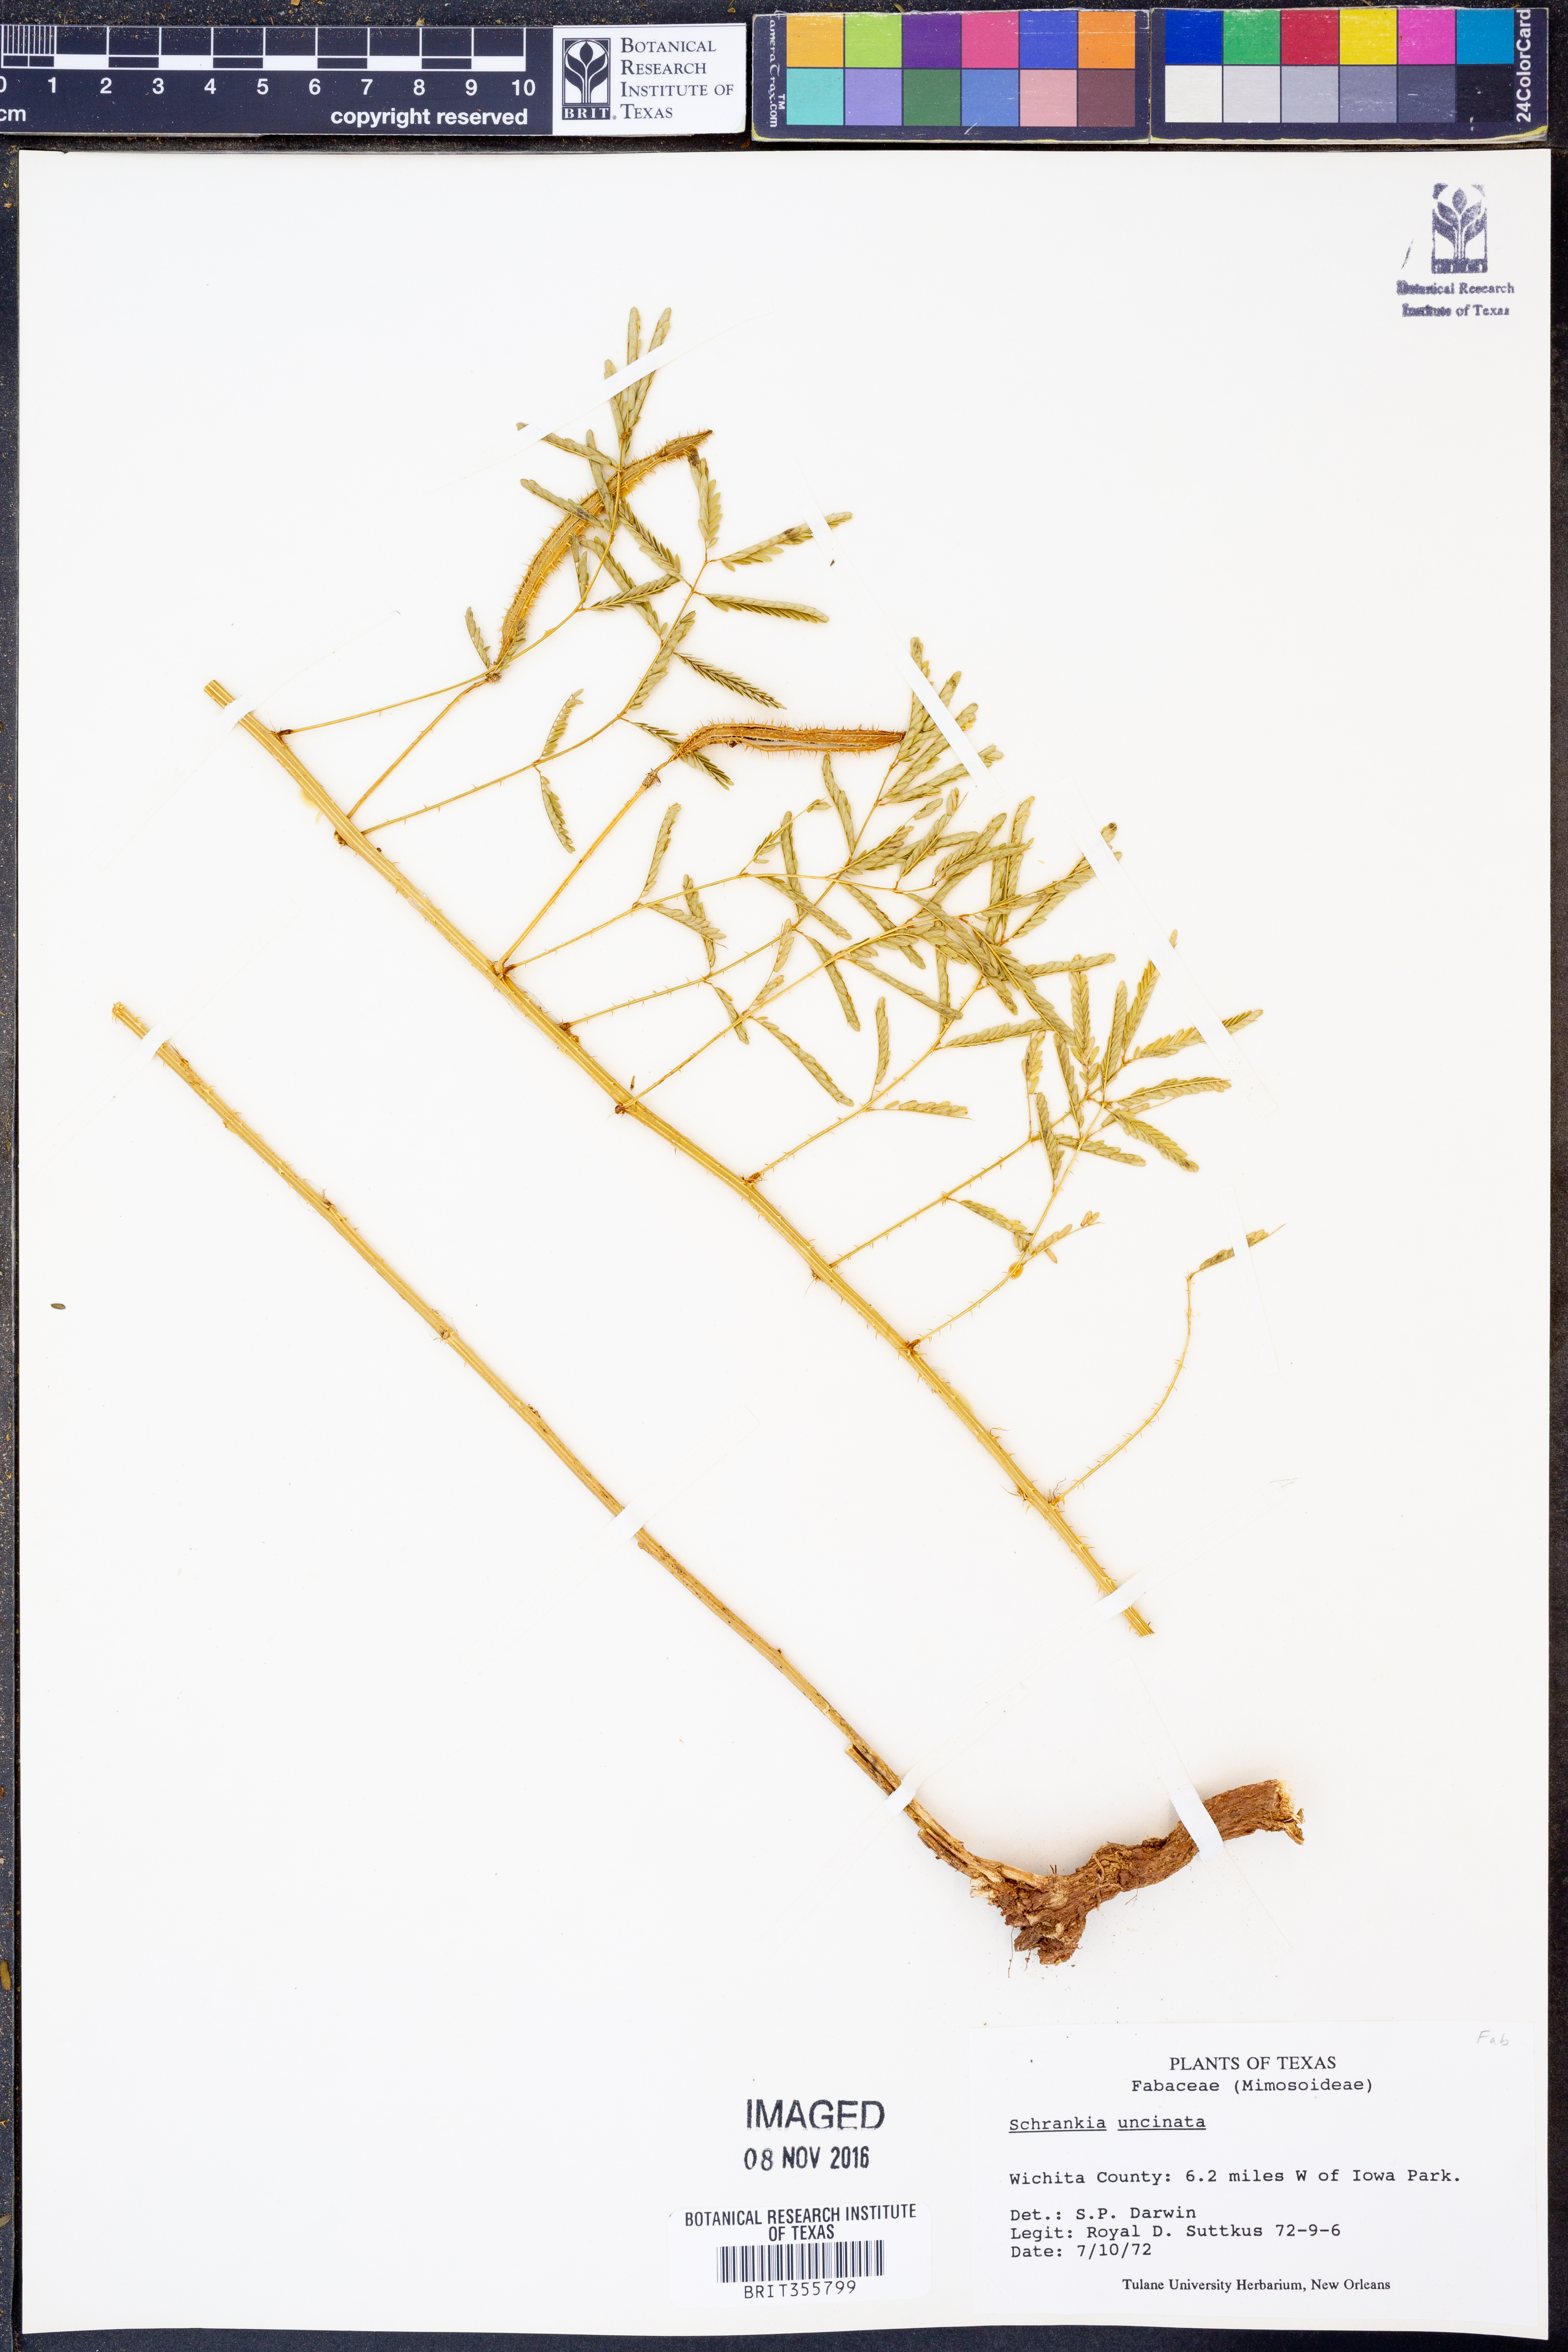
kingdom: Plantae
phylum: Tracheophyta
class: Magnoliopsida
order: Fabales
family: Fabaceae
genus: Mimosa
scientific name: Mimosa quadrivalvis
